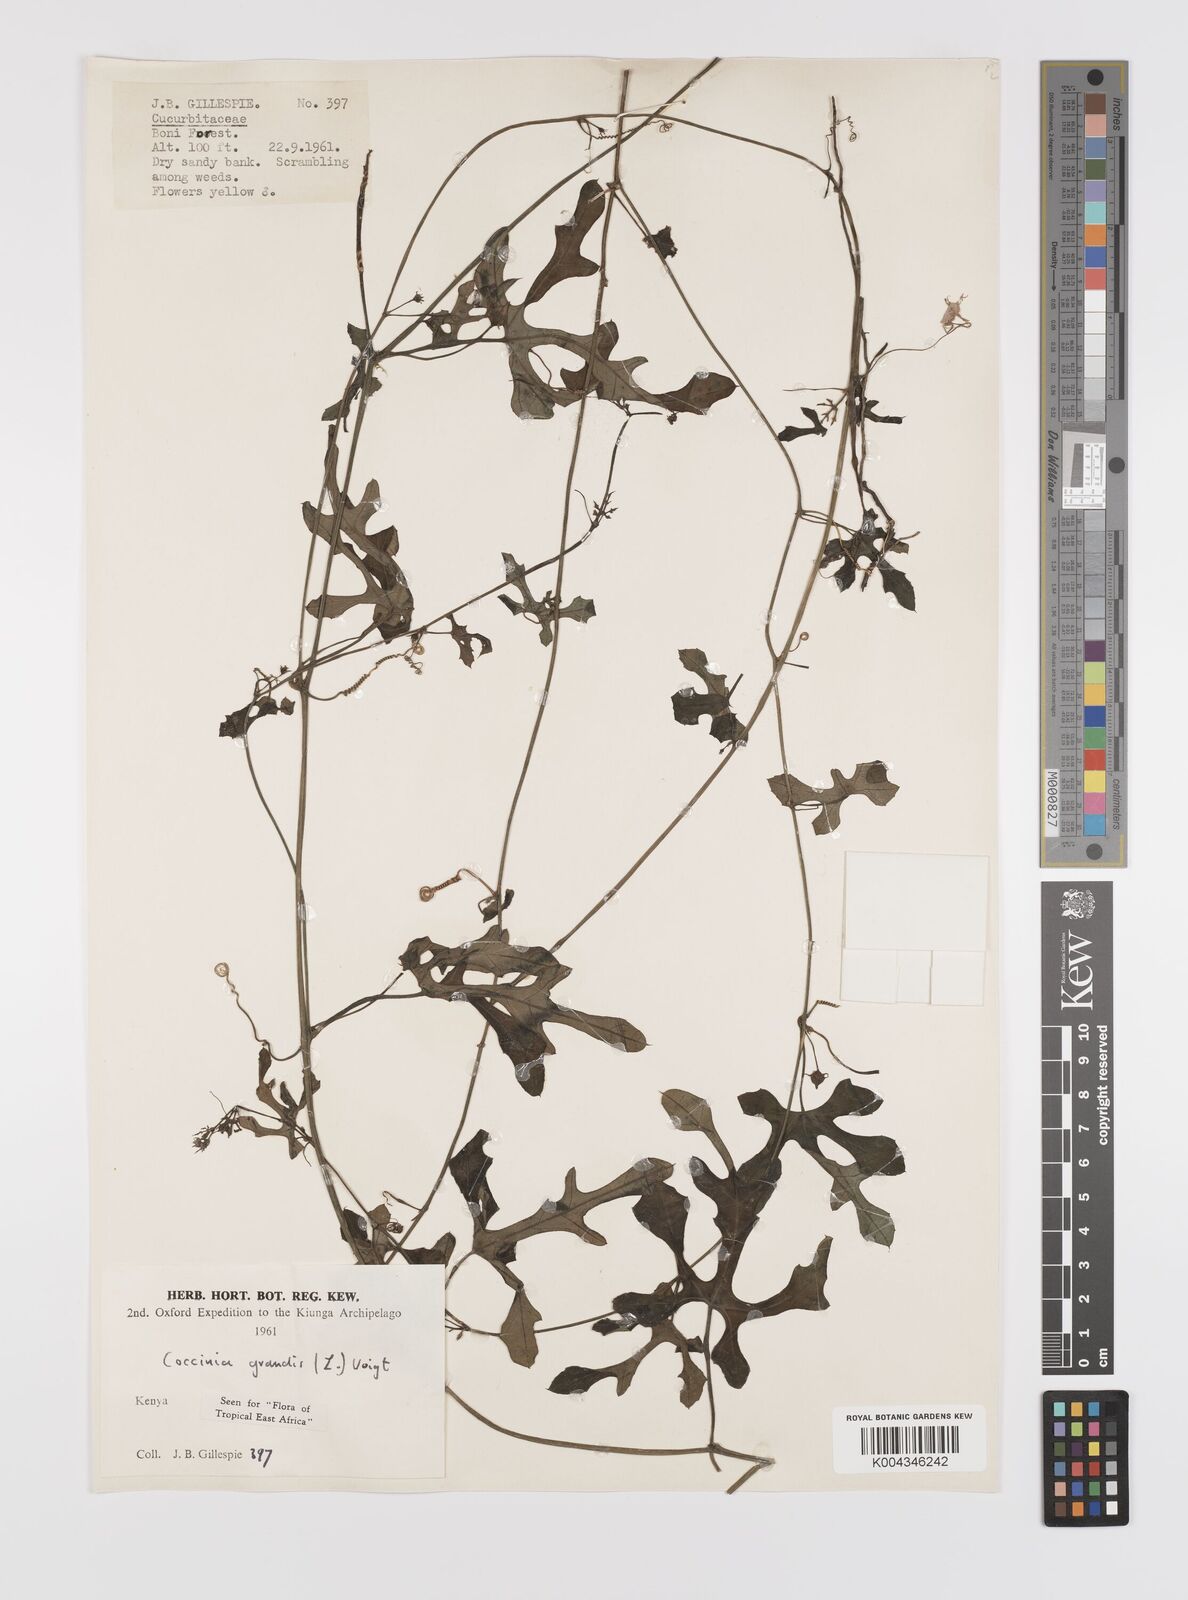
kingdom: Plantae
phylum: Tracheophyta
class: Magnoliopsida
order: Cucurbitales
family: Cucurbitaceae
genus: Coccinia
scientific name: Coccinia grandis
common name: Ivy gourd
